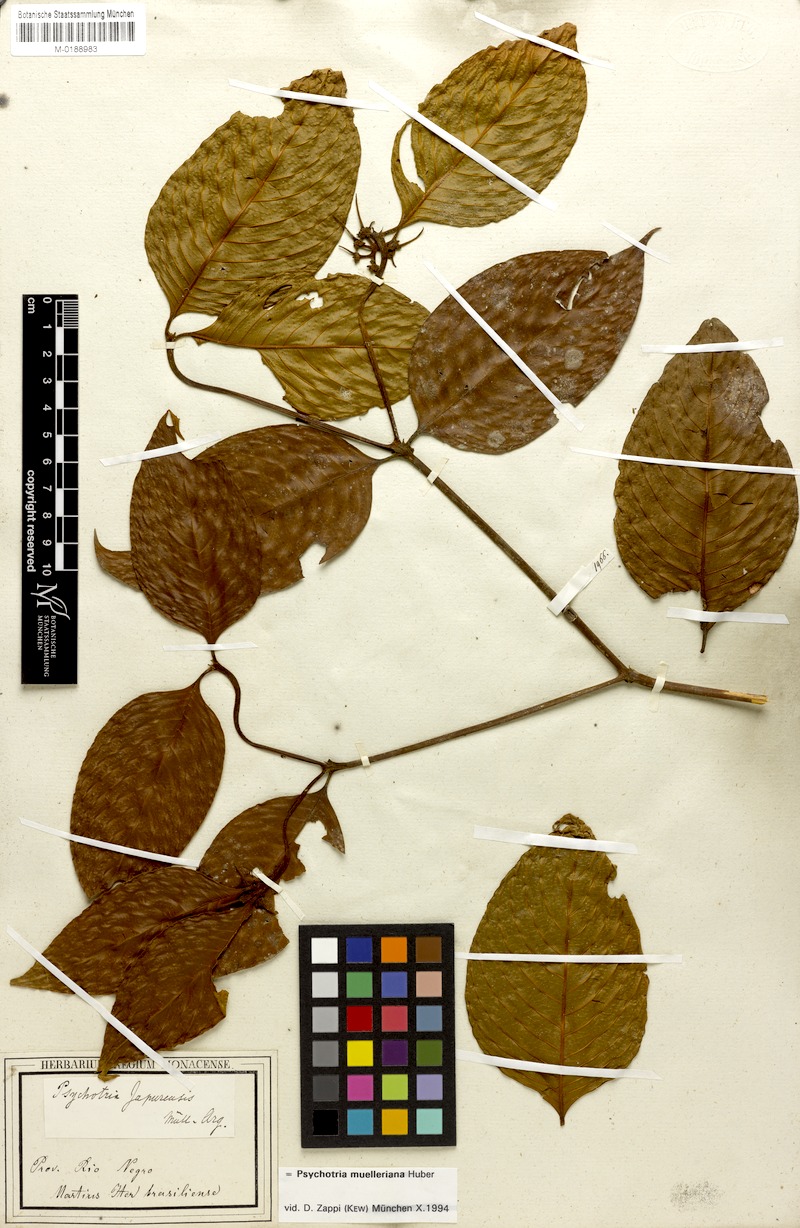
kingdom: Plantae
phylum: Tracheophyta
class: Magnoliopsida
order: Gentianales
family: Rubiaceae
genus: Palicourea
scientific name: Palicourea iodotricha
